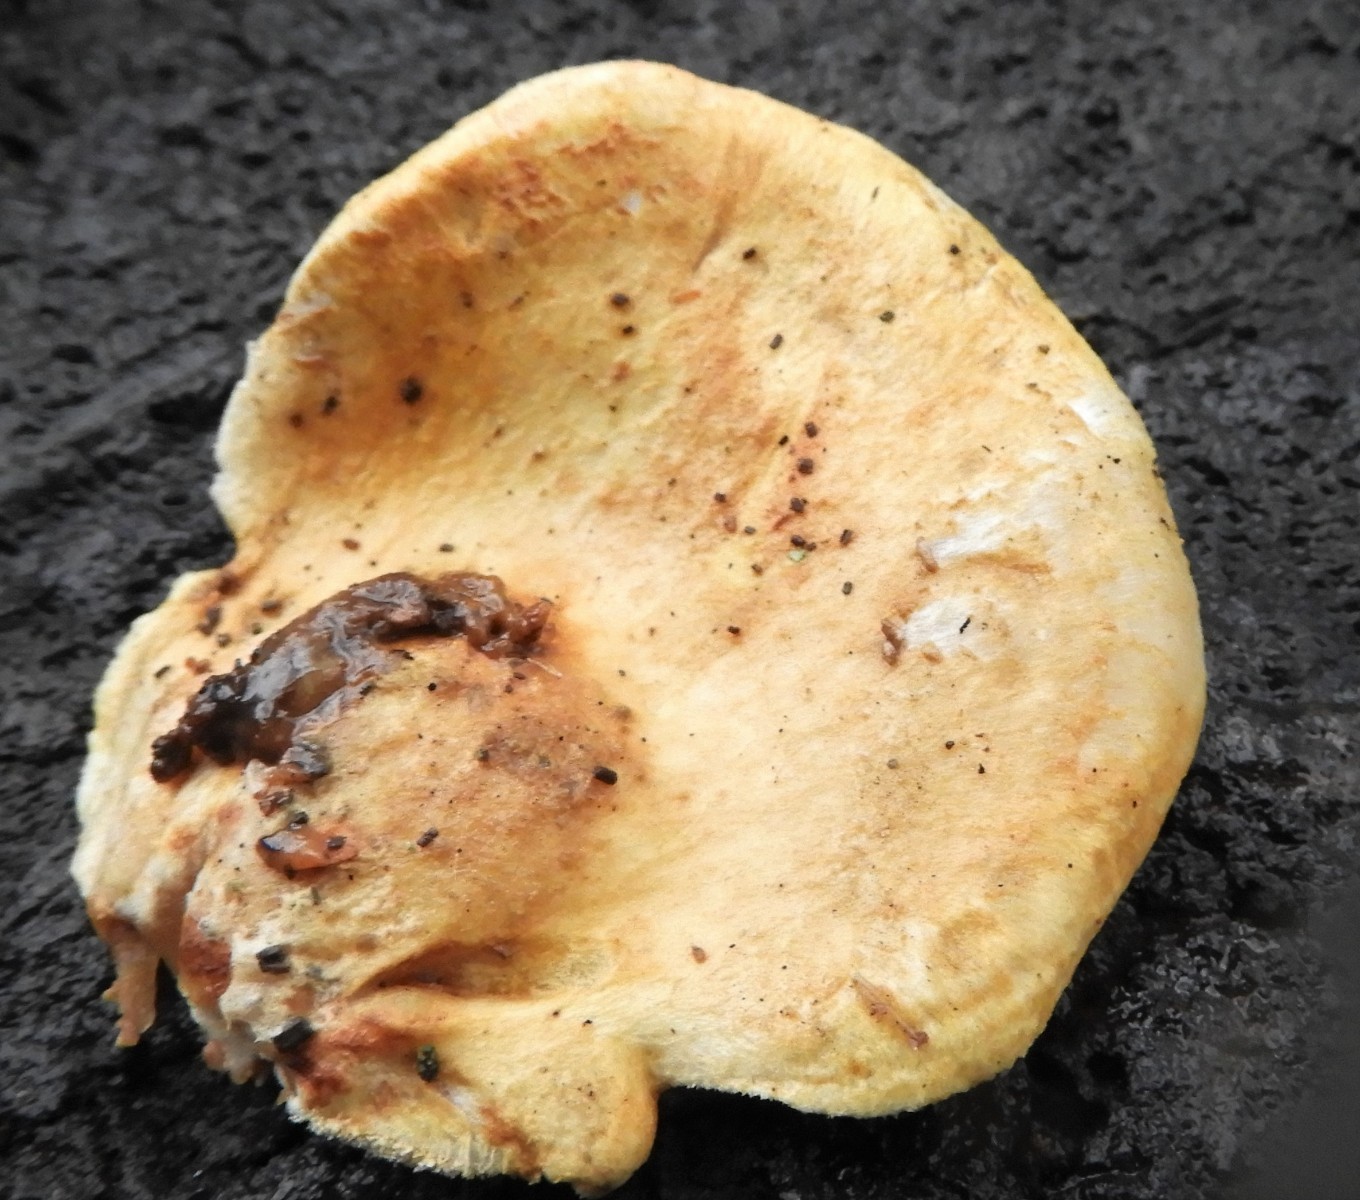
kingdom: Fungi
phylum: Basidiomycota
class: Agaricomycetes
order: Boletales
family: Tapinellaceae
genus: Tapinella
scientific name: Tapinella panuoides
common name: tømmer-viftesvamp
